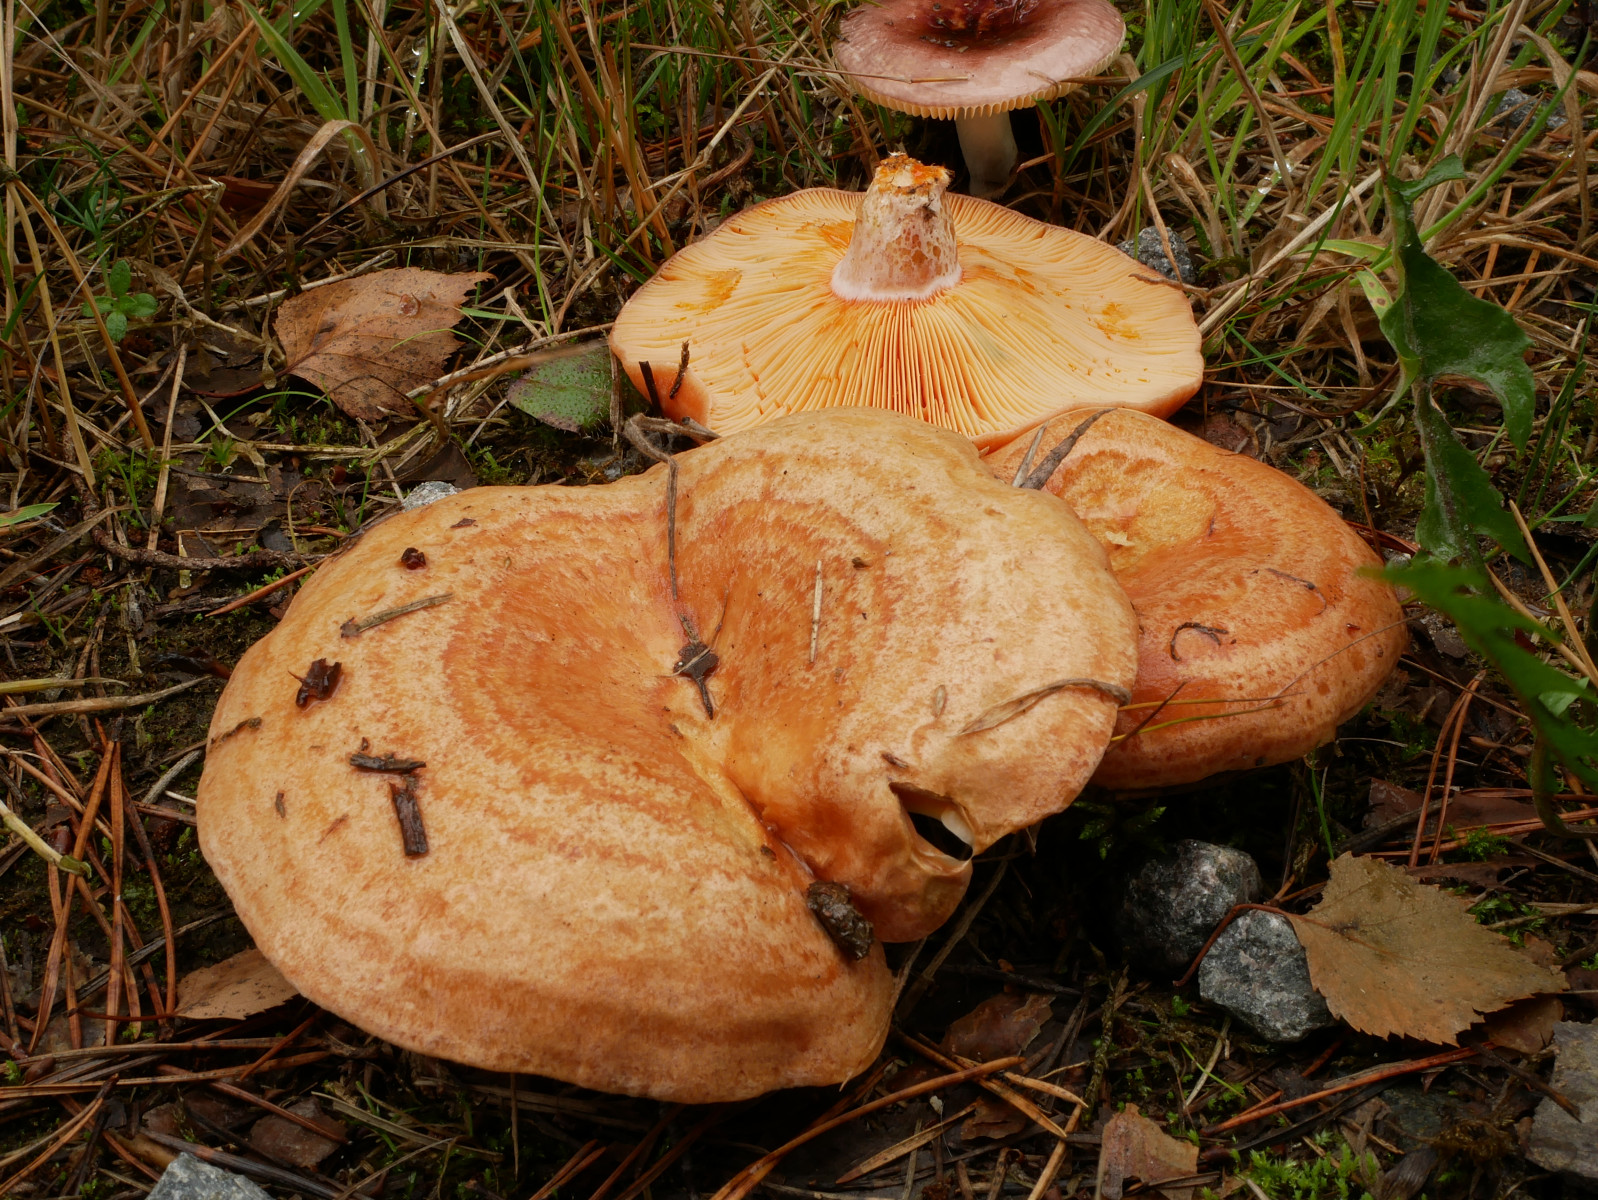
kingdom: Fungi
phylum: Basidiomycota
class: Agaricomycetes
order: Russulales
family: Russulaceae
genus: Lactarius
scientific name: Lactarius deliciosus
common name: velsmagende mælkehat
